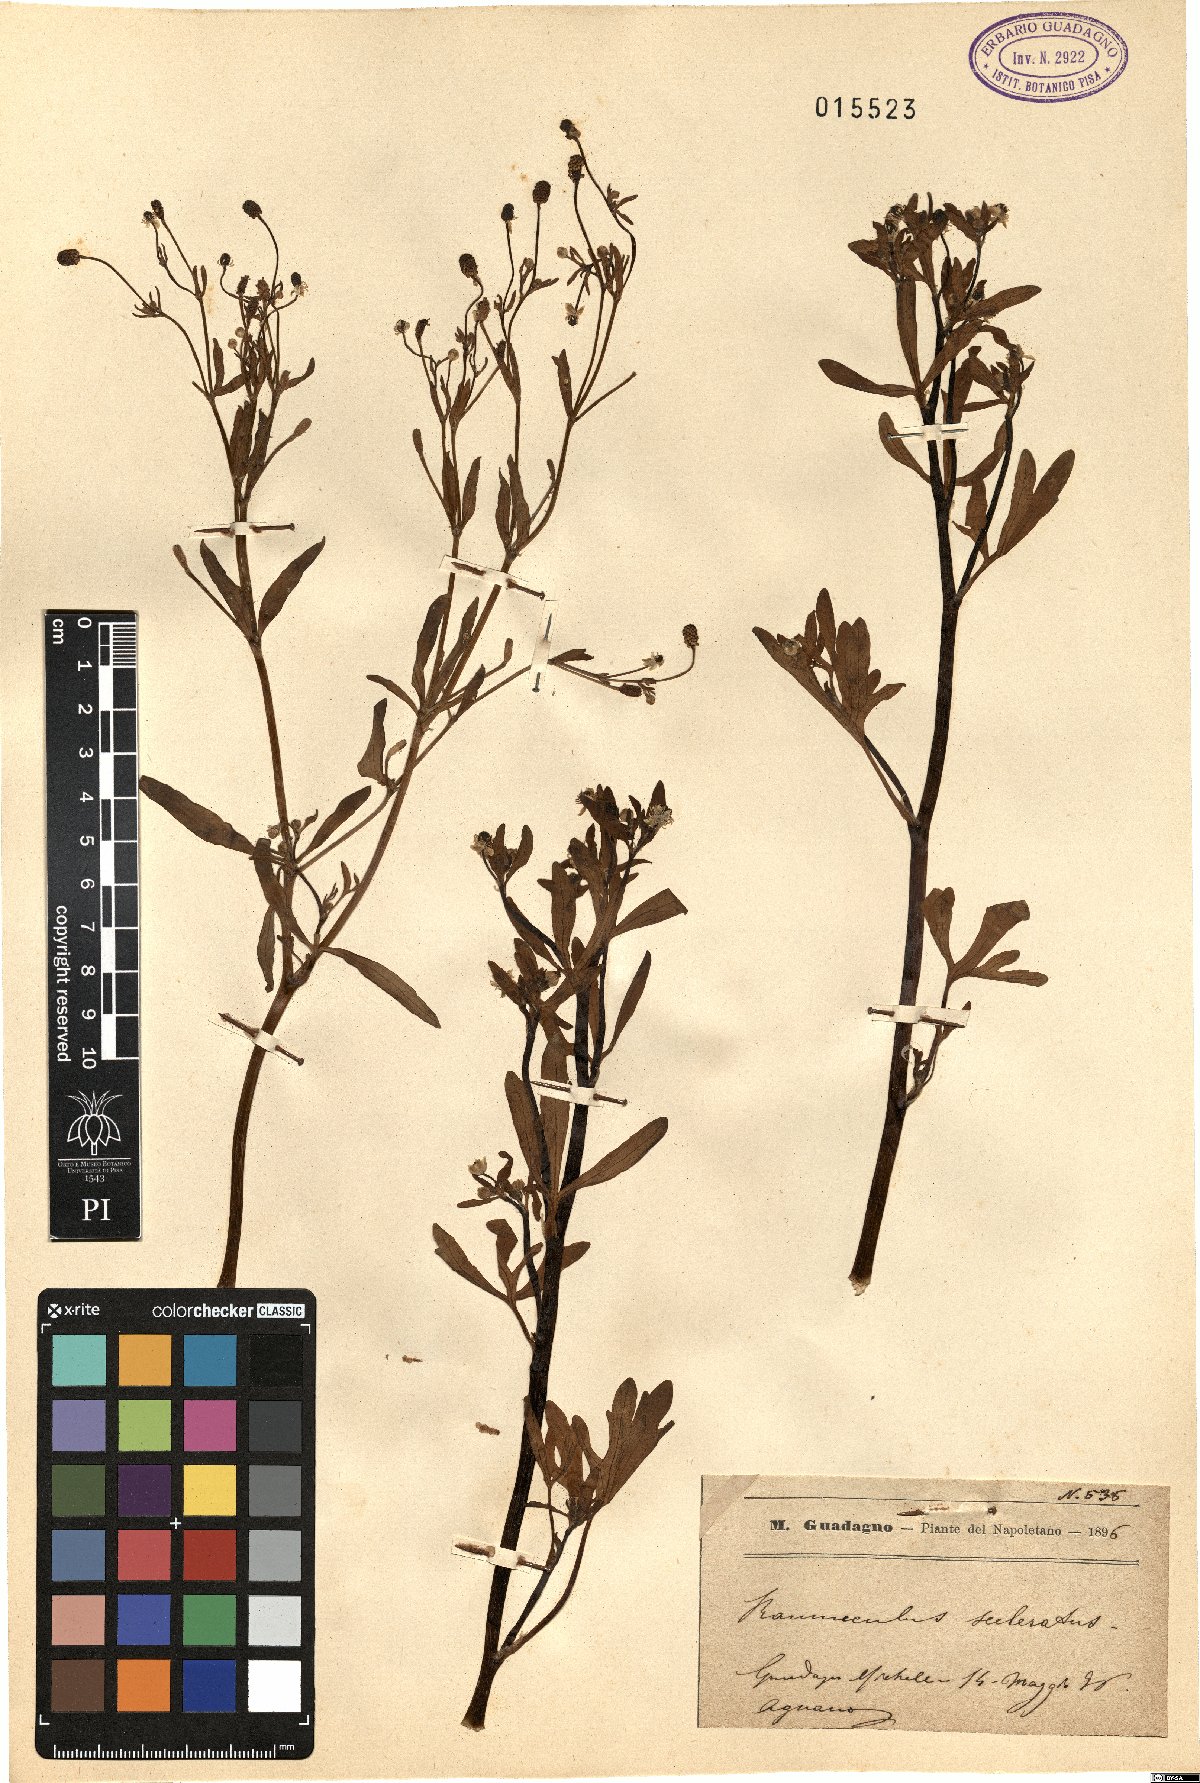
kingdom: Plantae
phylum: Tracheophyta
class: Magnoliopsida
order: Ranunculales
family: Ranunculaceae
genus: Ranunculus
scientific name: Ranunculus sceleratus
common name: Celery-leaved buttercup
